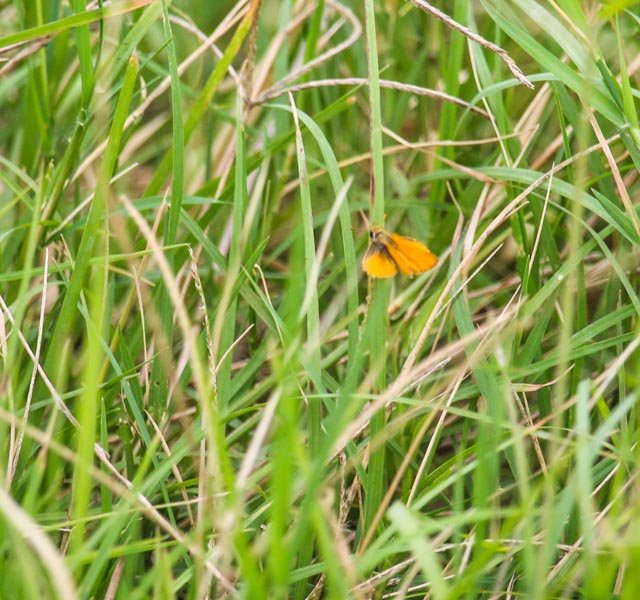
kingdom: Animalia
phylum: Arthropoda
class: Insecta
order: Lepidoptera
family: Hesperiidae
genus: Copaeodes
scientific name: Copaeodes minima
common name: Southern Skipperling
